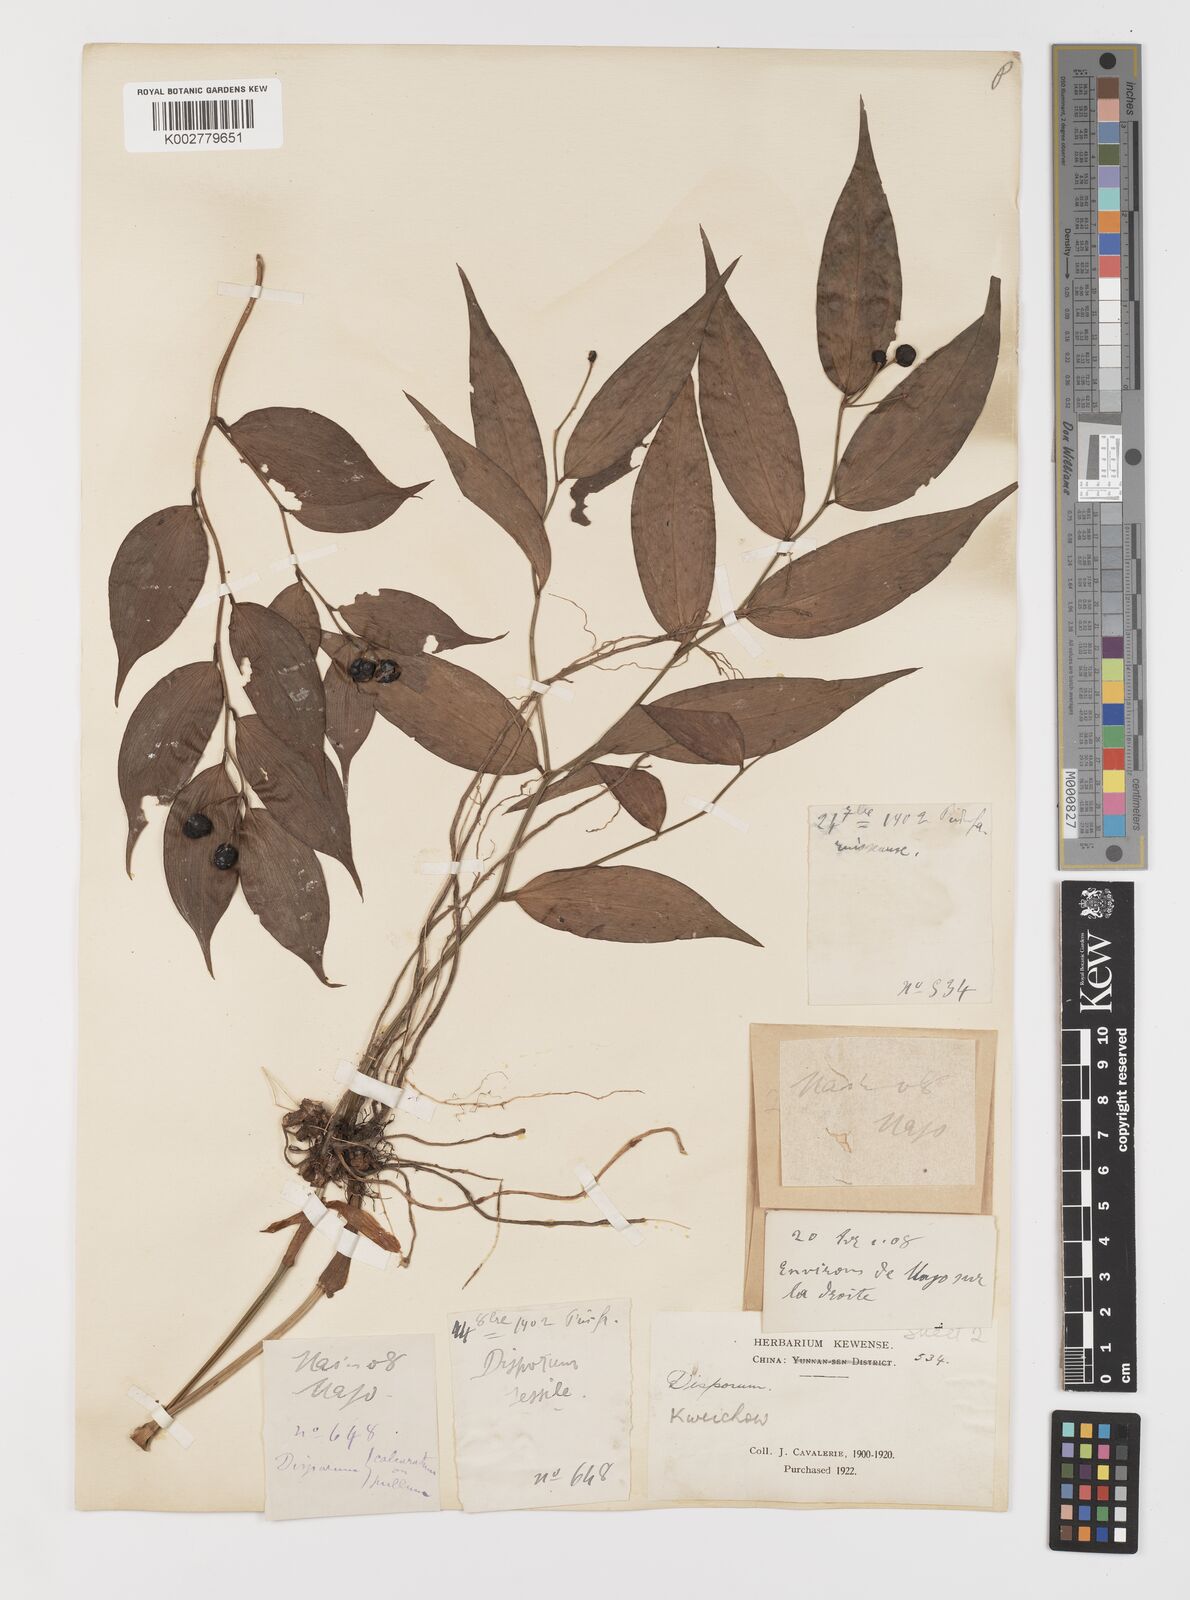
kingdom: Plantae
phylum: Tracheophyta
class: Liliopsida
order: Liliales
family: Colchicaceae
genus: Disporum
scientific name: Disporum longistylum
